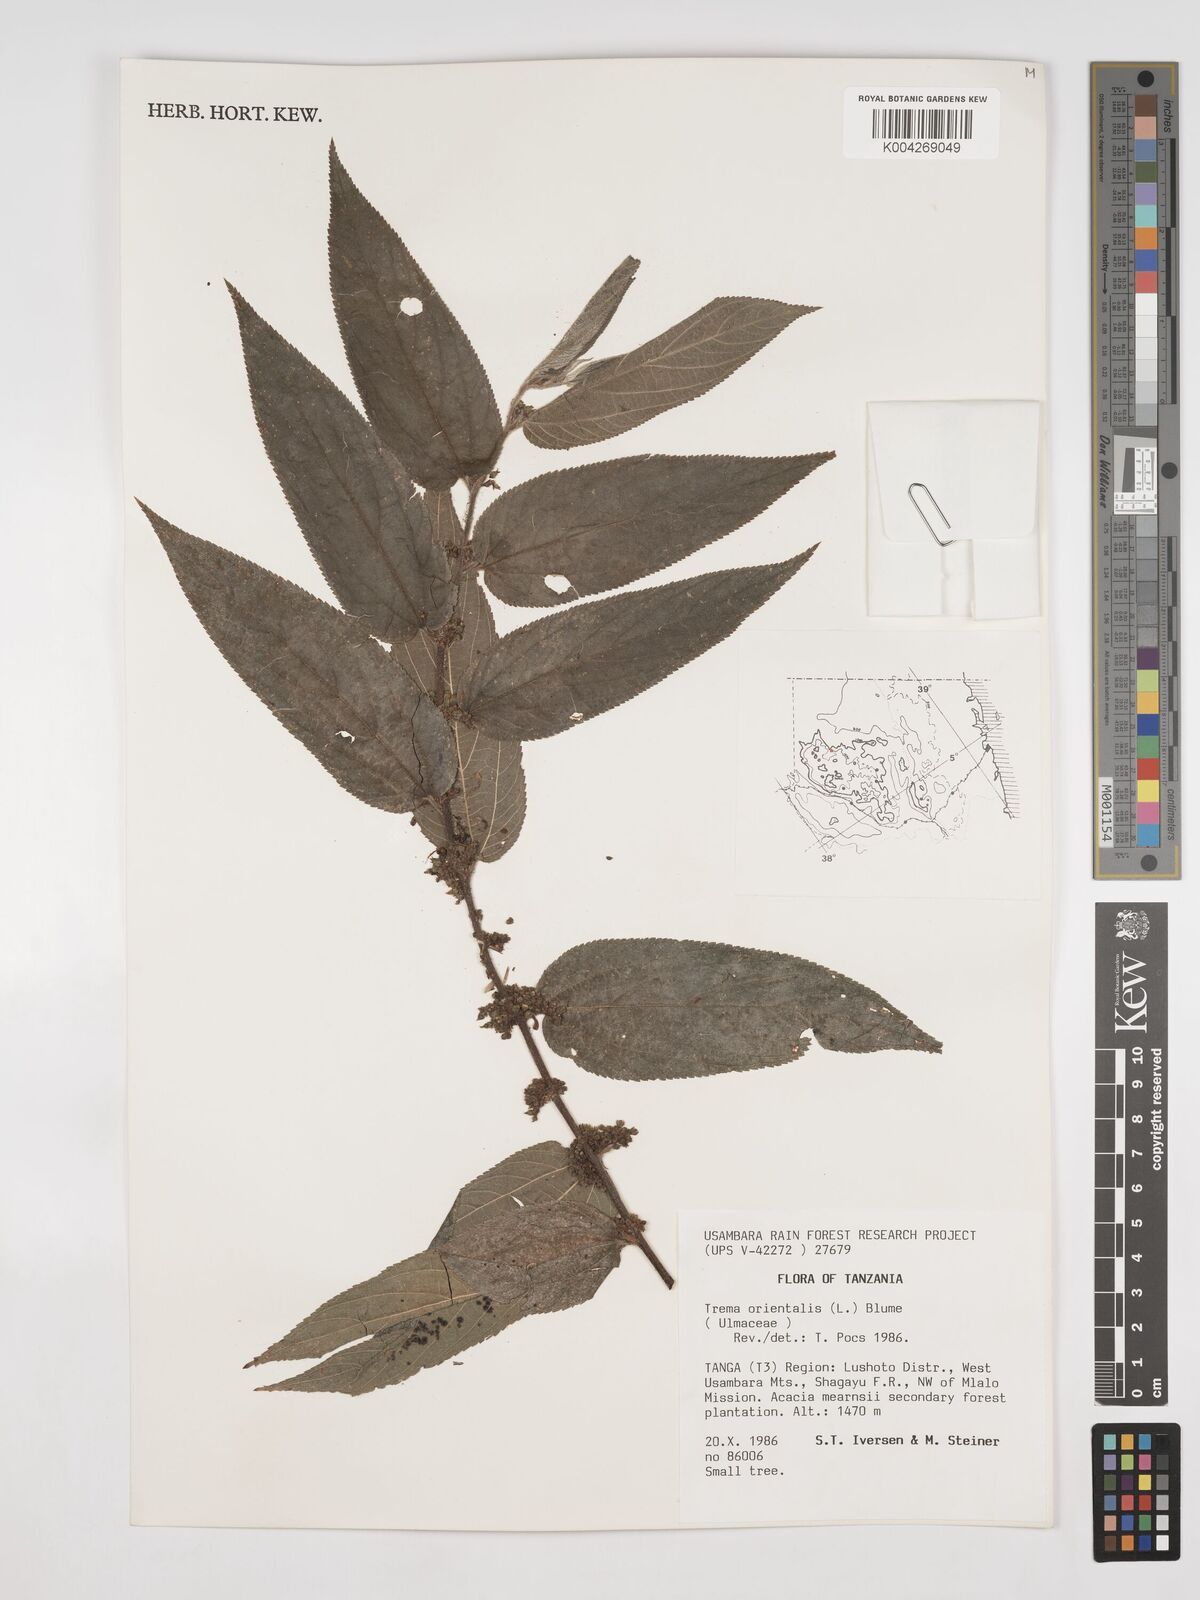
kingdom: Plantae
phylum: Tracheophyta
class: Magnoliopsida
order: Rosales
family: Cannabaceae
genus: Trema
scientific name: Trema orientale
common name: Indian charcoal tree
